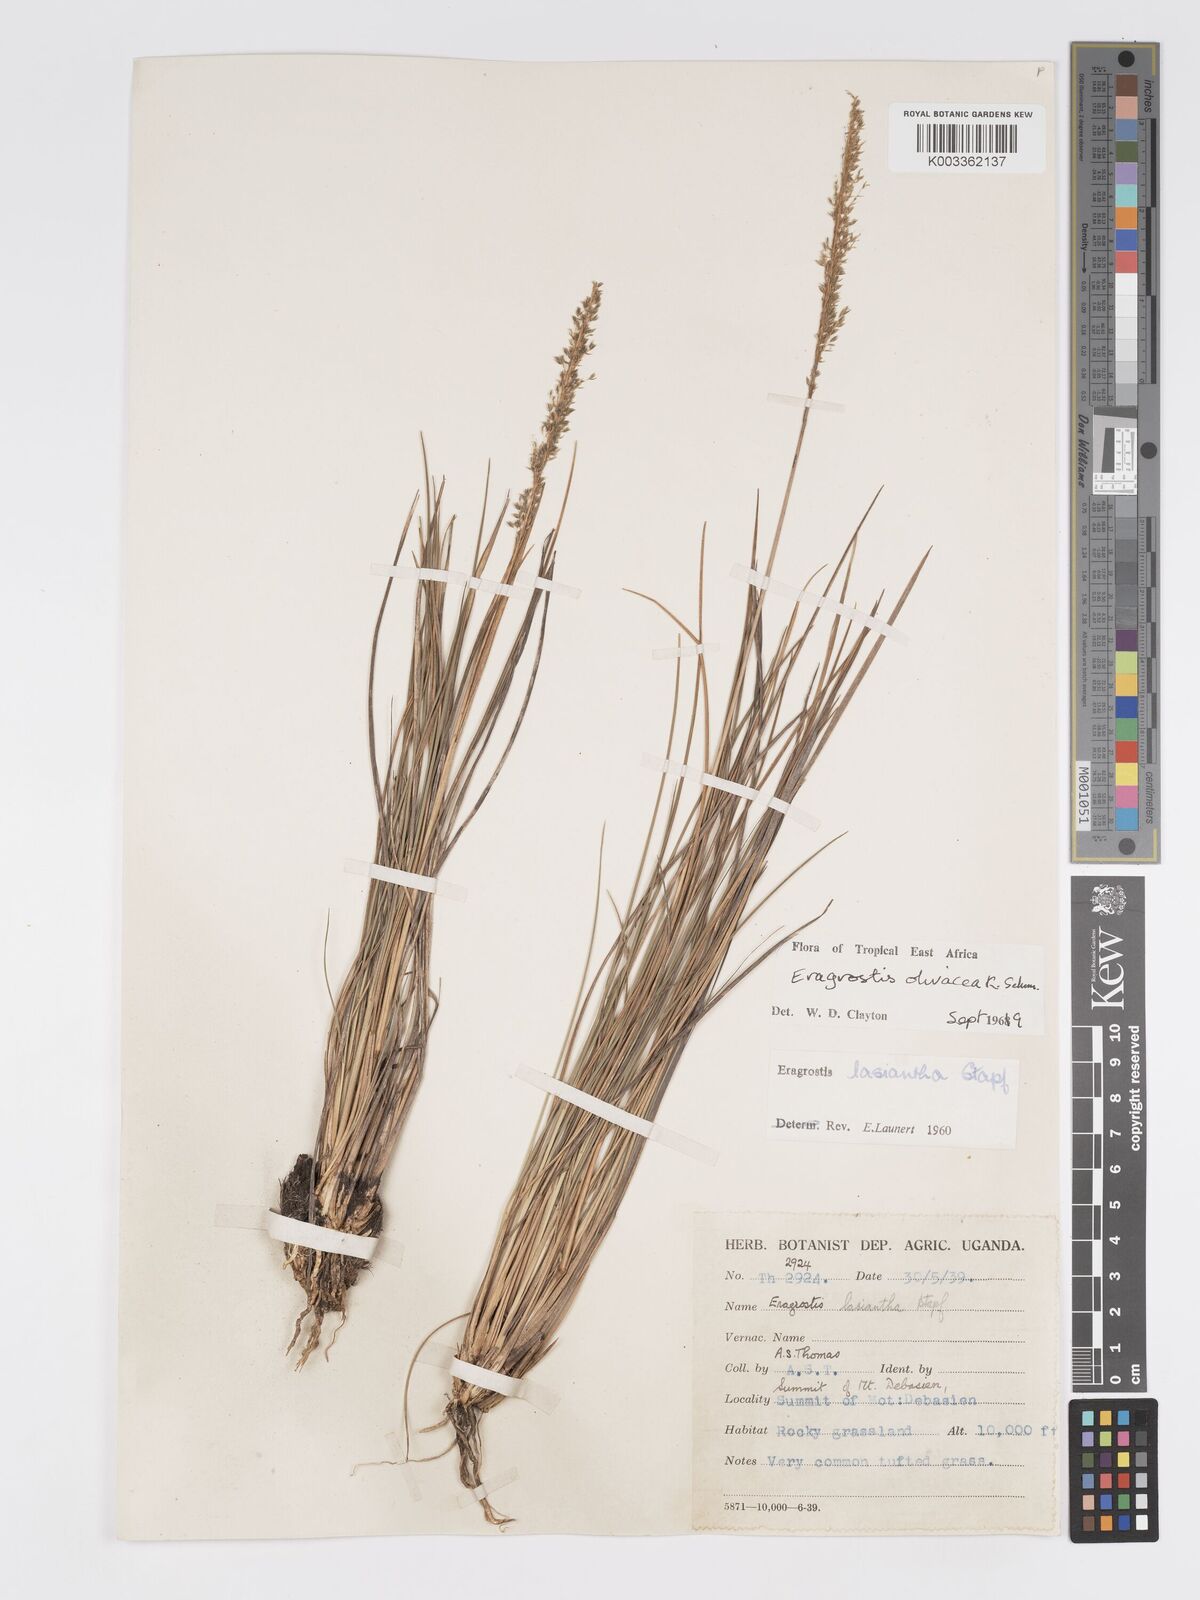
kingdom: Plantae
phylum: Tracheophyta
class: Liliopsida
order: Poales
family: Poaceae
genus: Eragrostis
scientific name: Eragrostis olivacea
